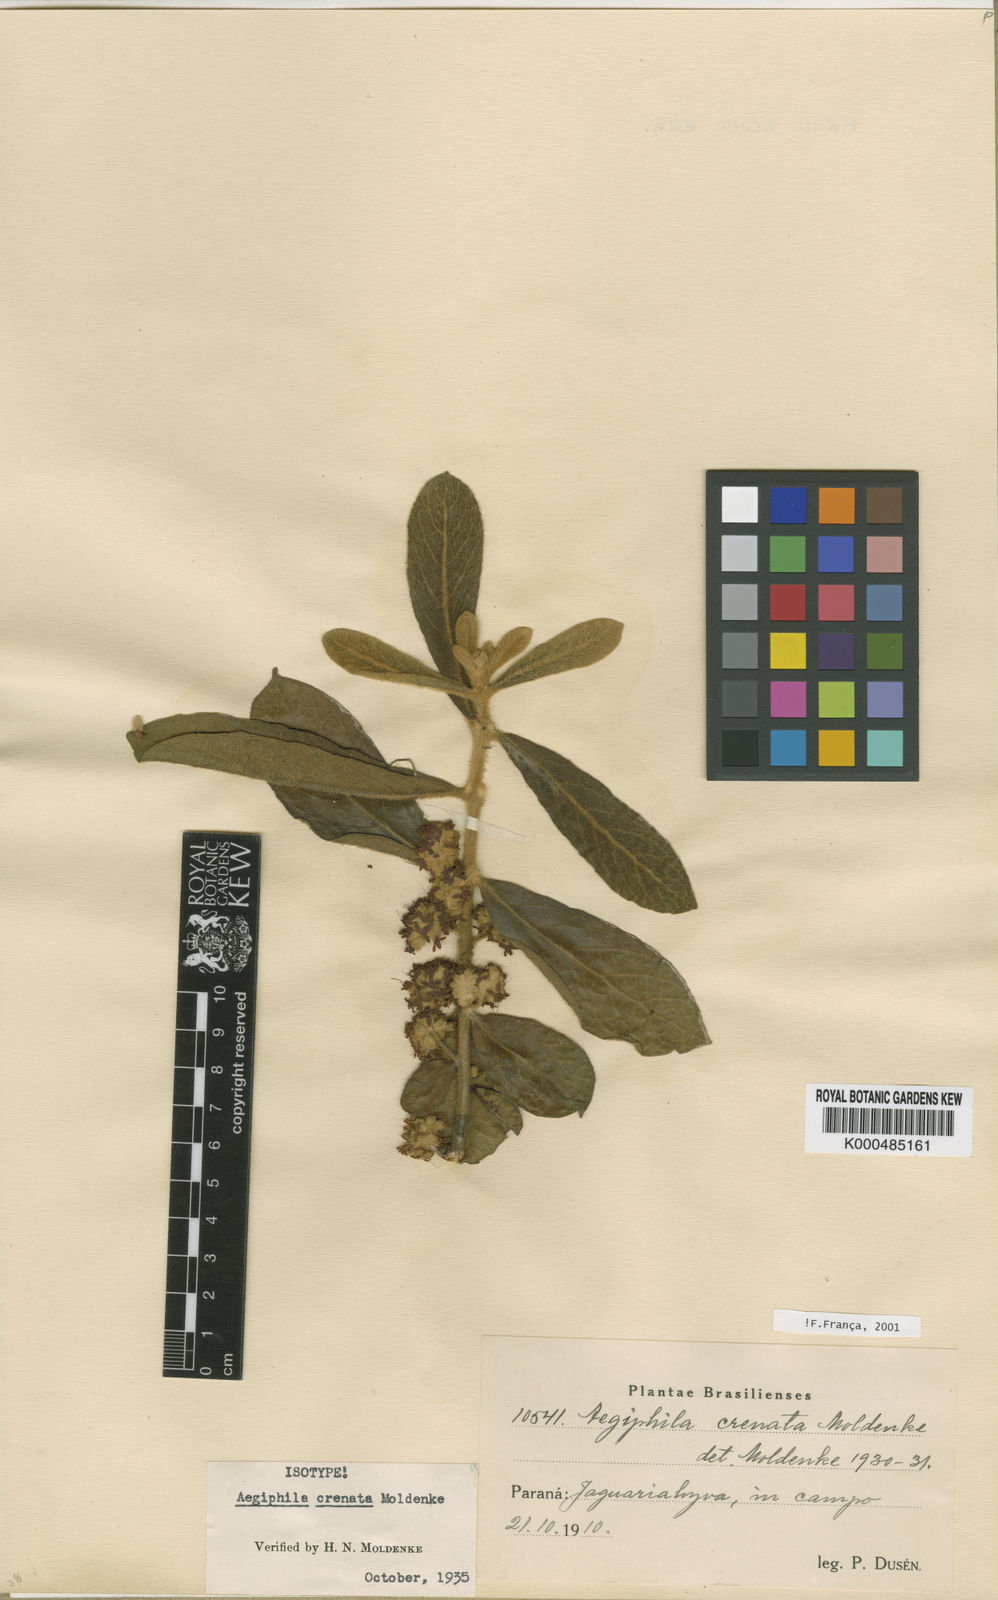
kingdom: Plantae
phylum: Tracheophyta
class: Magnoliopsida
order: Lamiales
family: Lamiaceae
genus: Aegiphila
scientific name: Aegiphila paraguariensis
